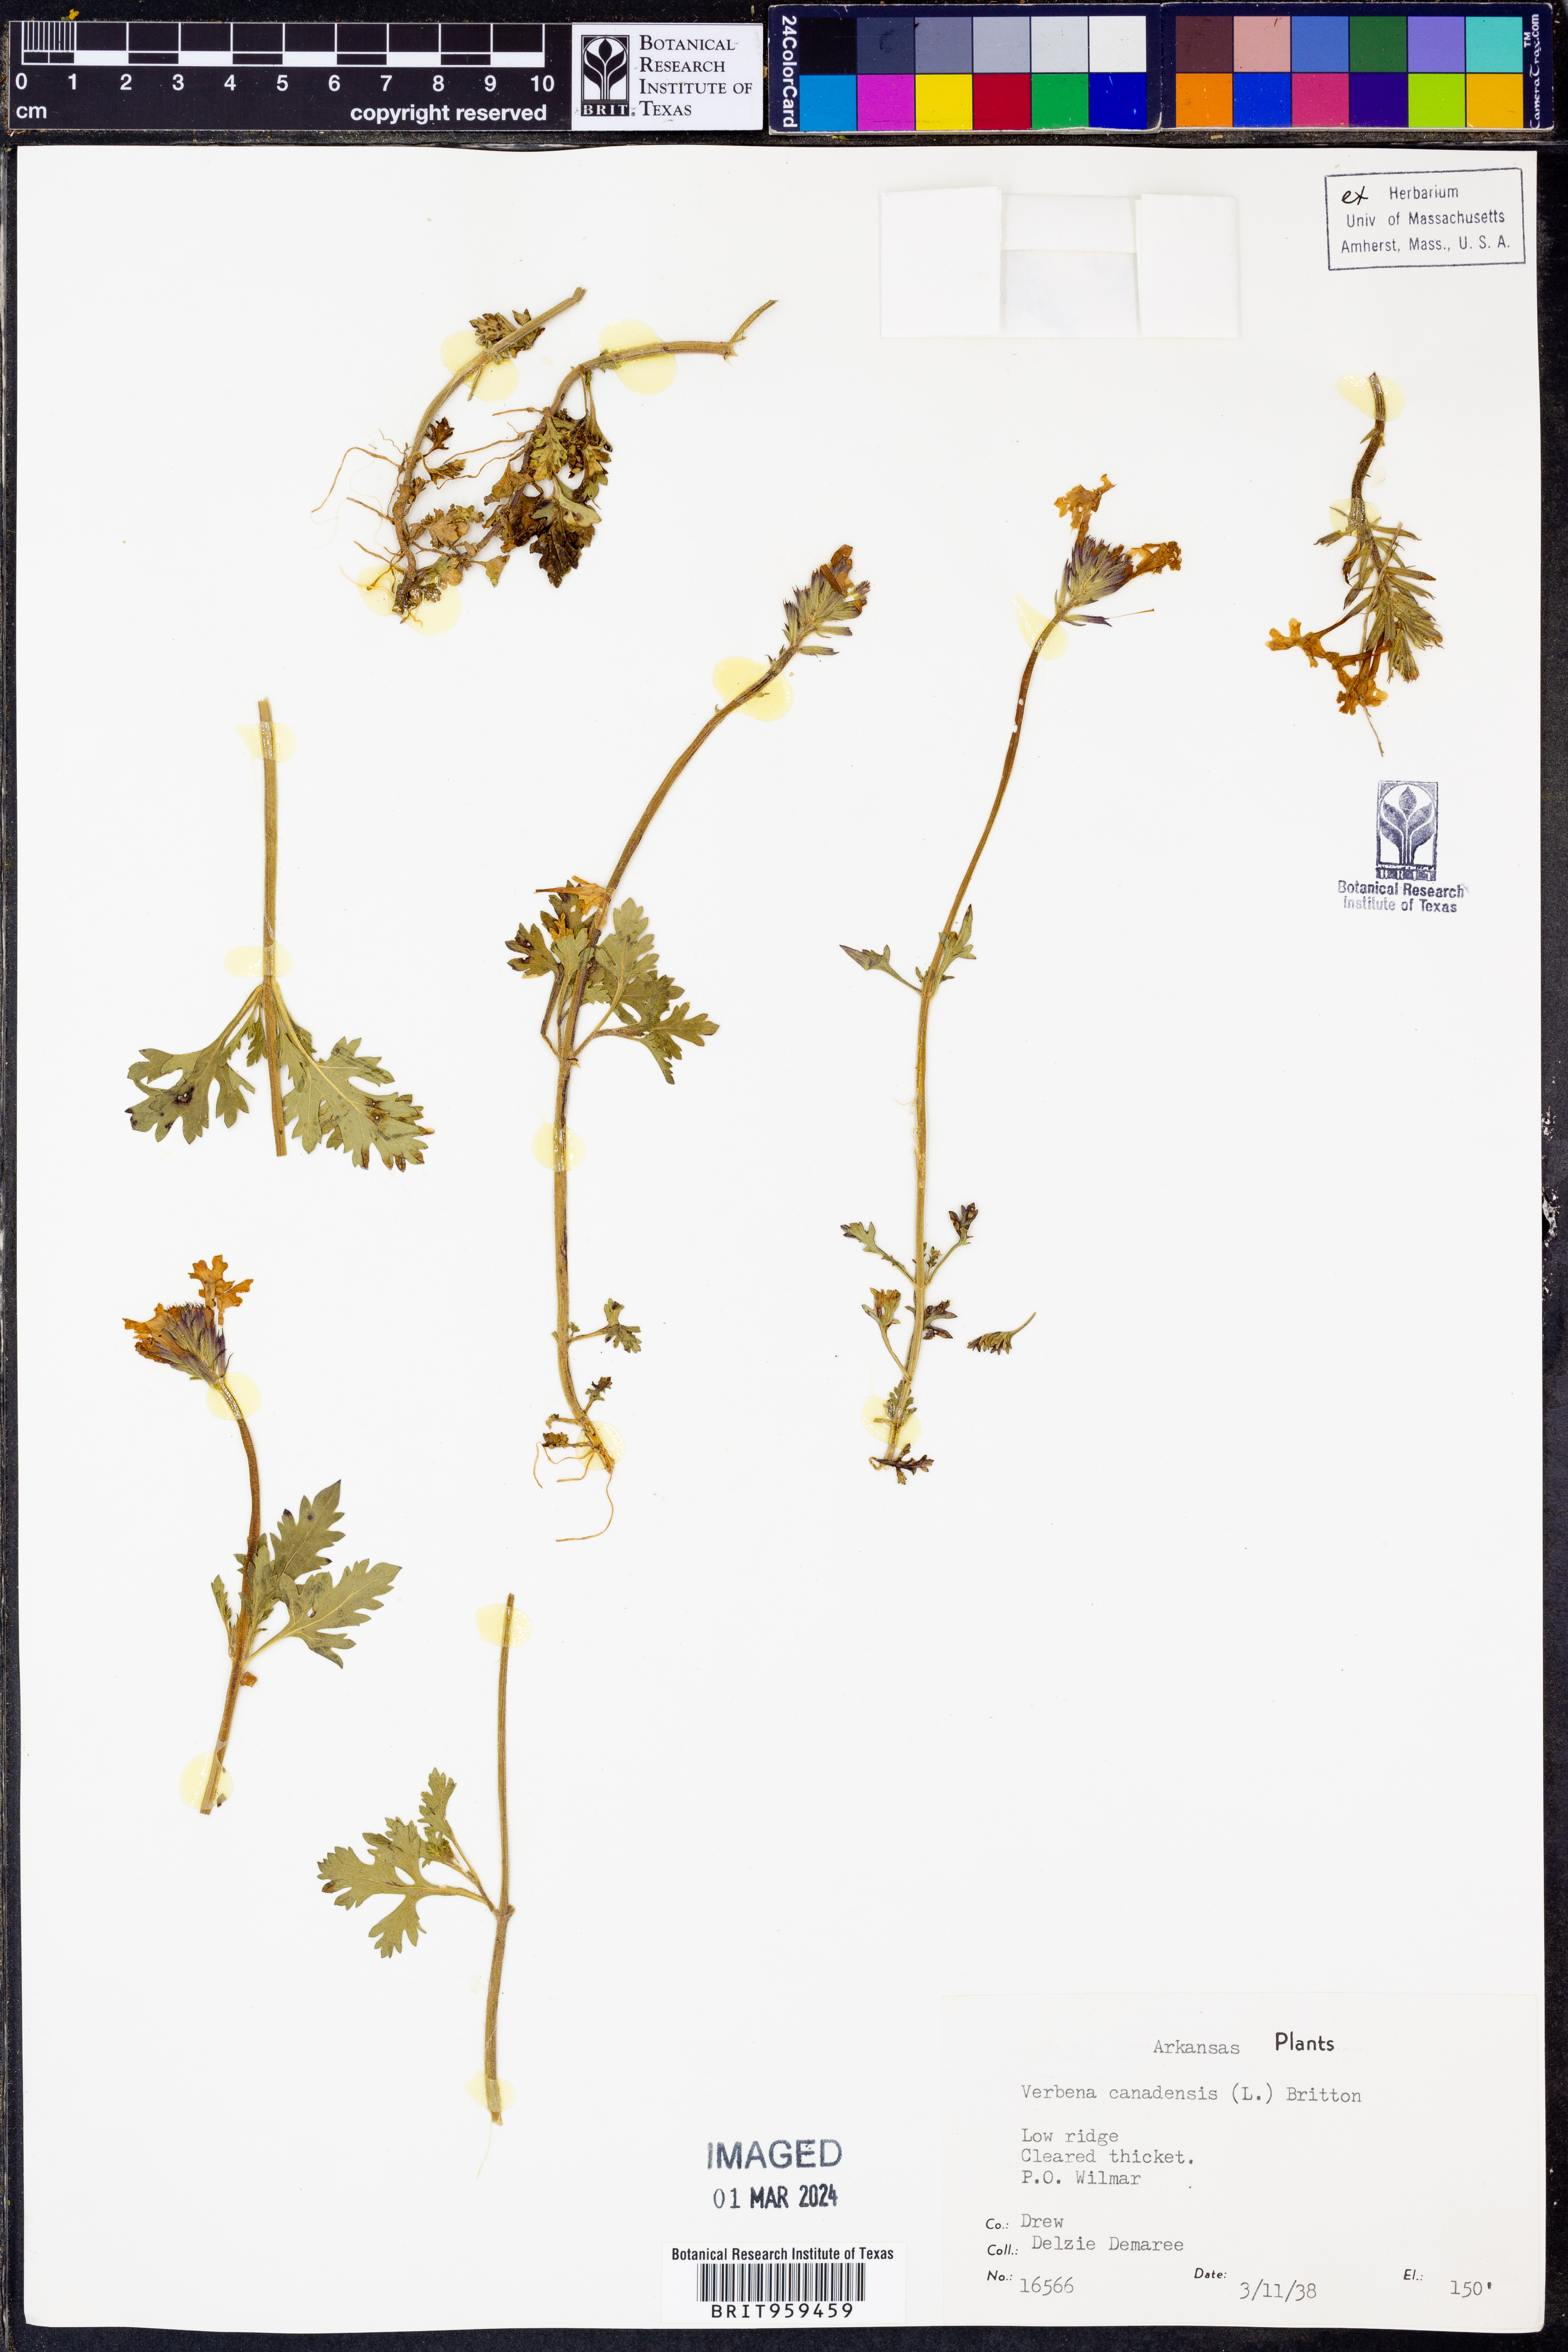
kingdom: Plantae
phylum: Tracheophyta
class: Magnoliopsida
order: Lamiales
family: Verbenaceae
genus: Verbena
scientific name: Verbena canadensis
